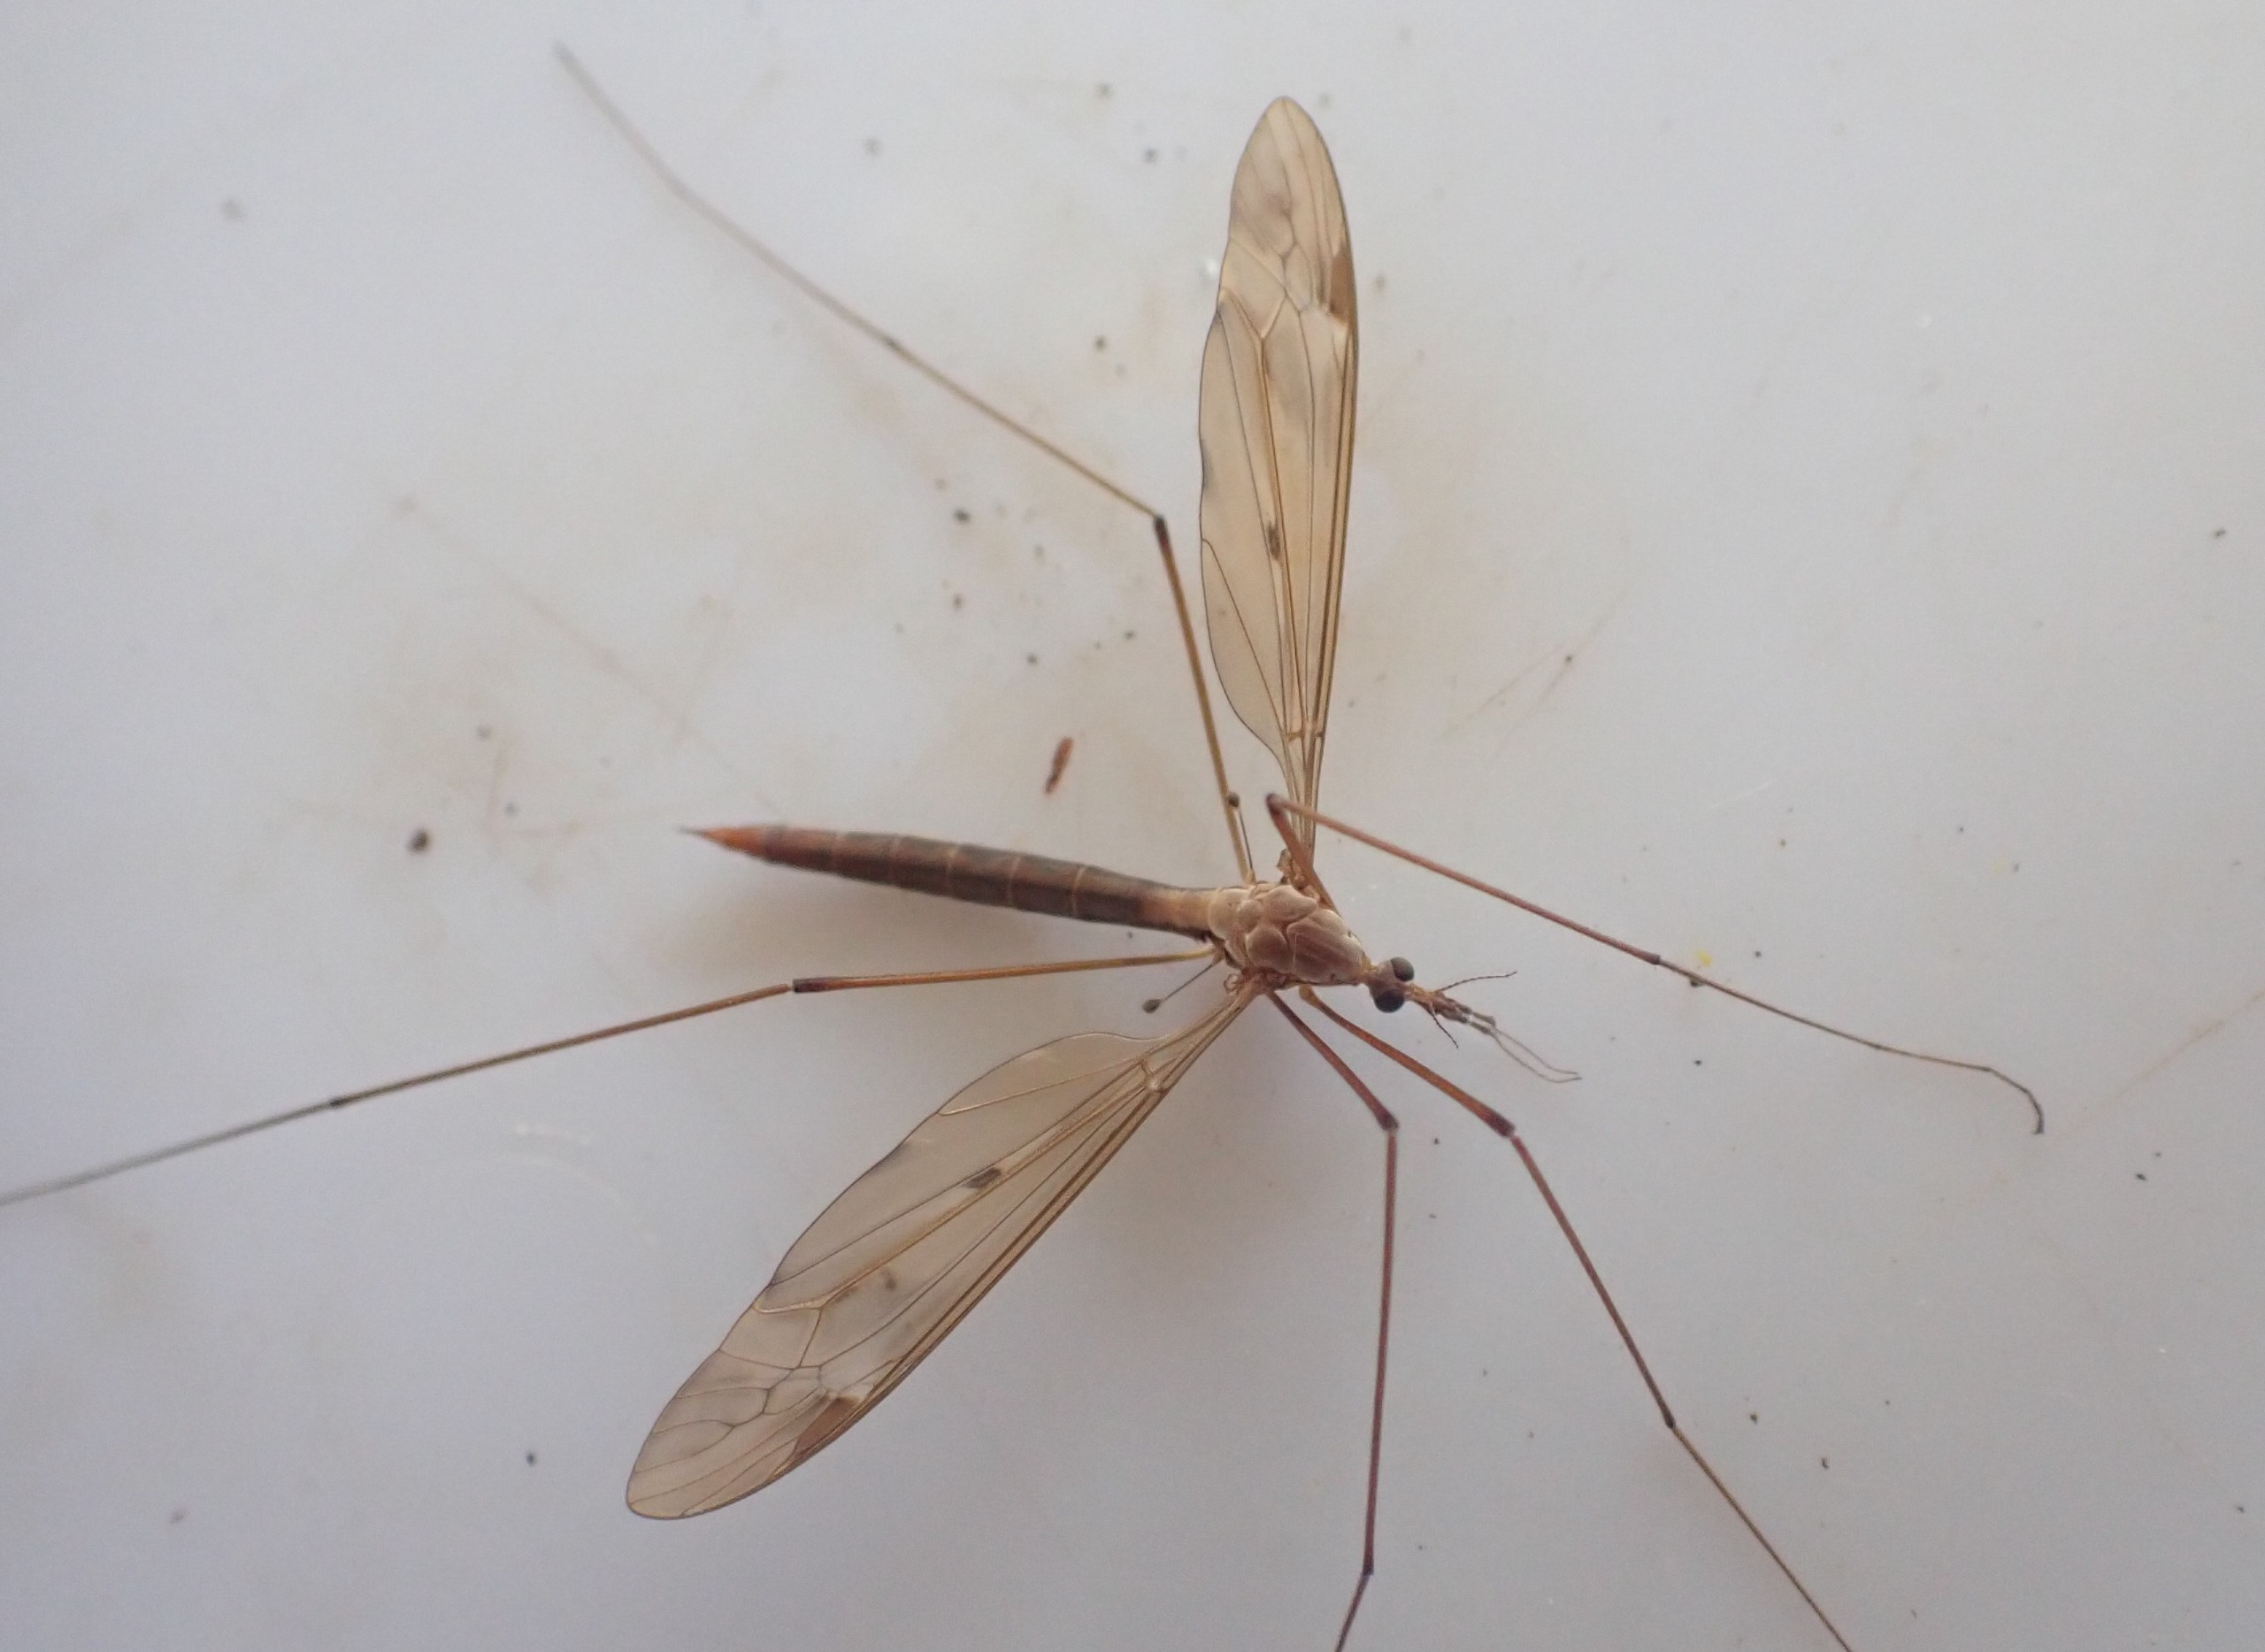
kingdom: Animalia
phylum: Arthropoda
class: Insecta
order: Diptera
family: Tipulidae
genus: Tipula
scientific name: Tipula fulvipennis
